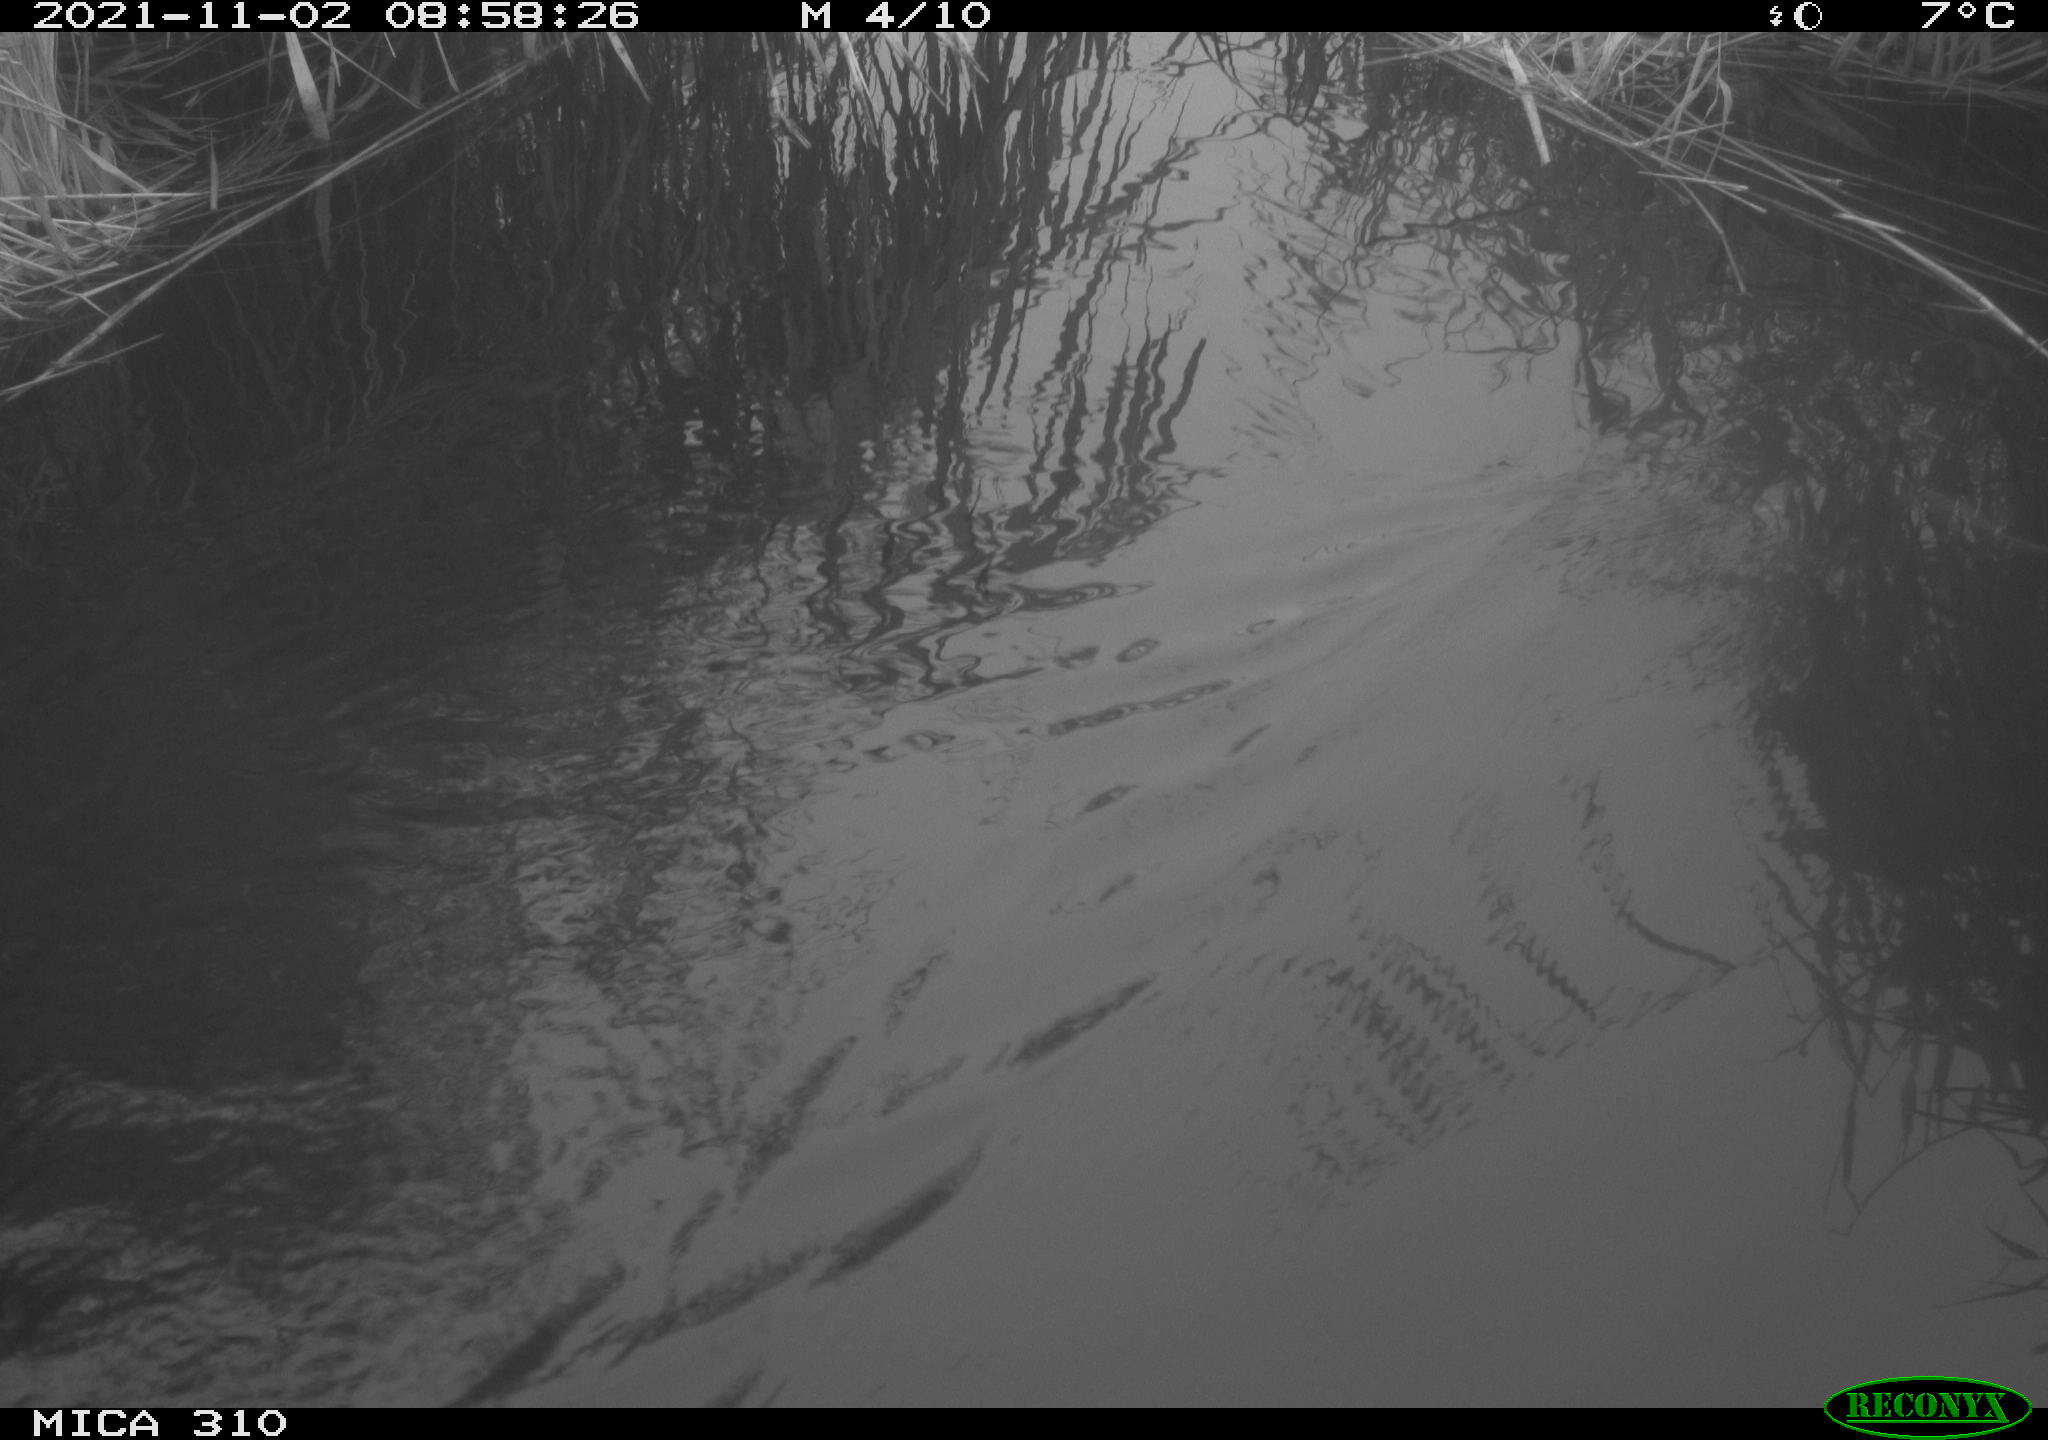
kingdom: Animalia
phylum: Chordata
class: Aves
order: Gruiformes
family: Rallidae
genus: Gallinula
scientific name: Gallinula chloropus
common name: Common moorhen
